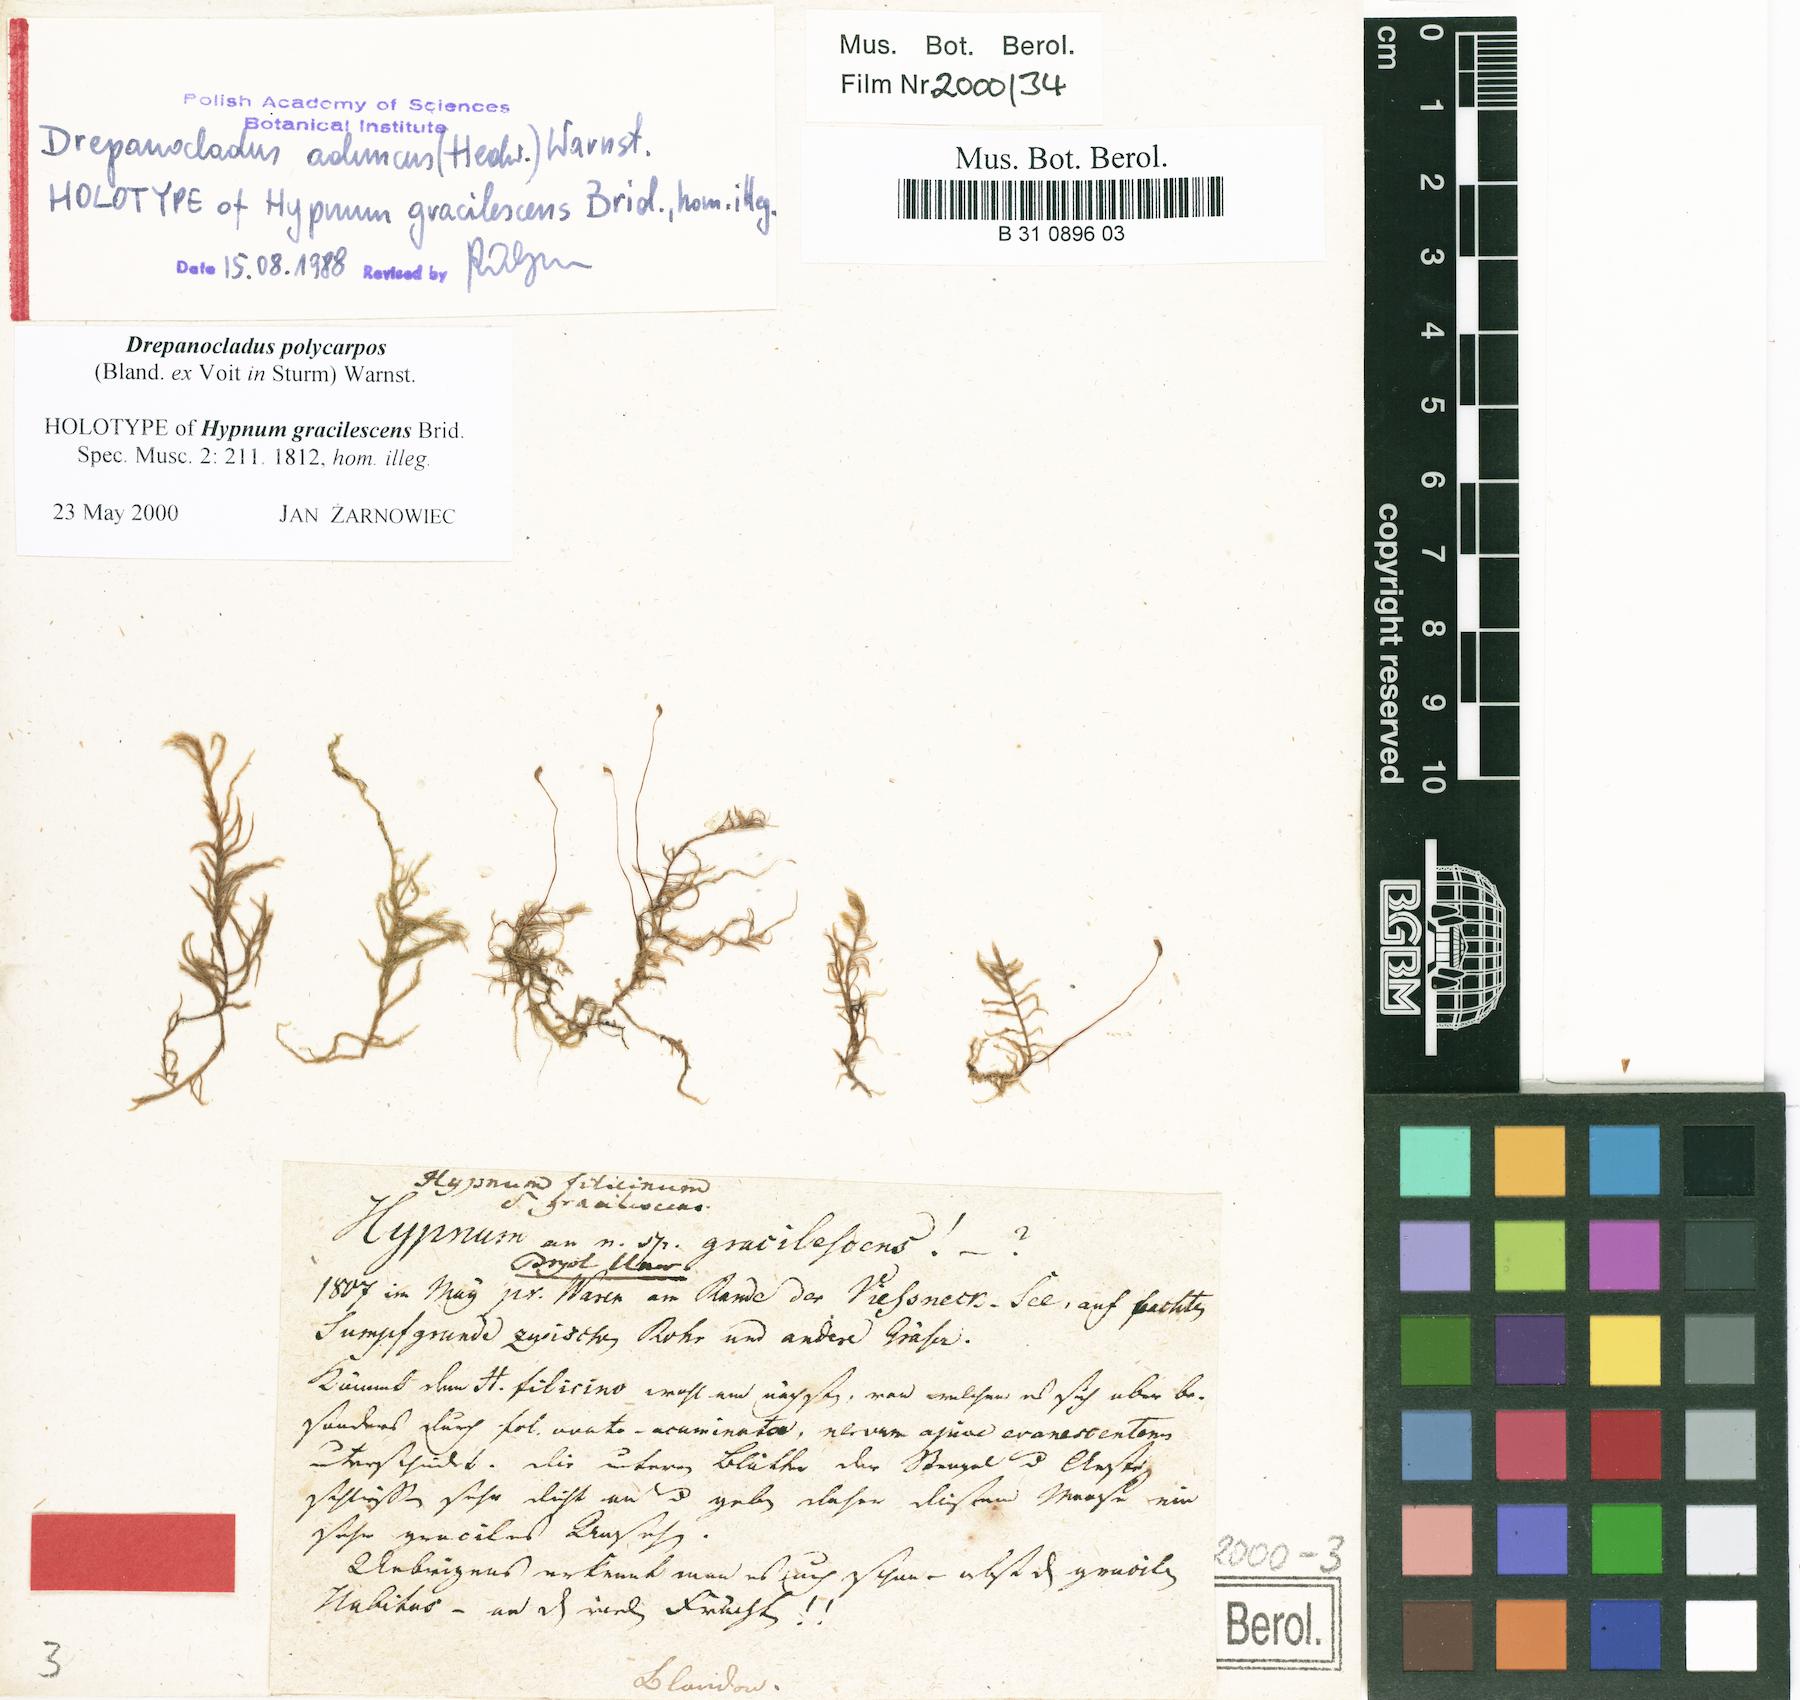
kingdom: Plantae
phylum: Bryophyta
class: Bryopsida
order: Hypnales
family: Amblystegiaceae
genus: Cratoneuron
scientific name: Cratoneuron filicinum
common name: Fern-leaved hook moss
